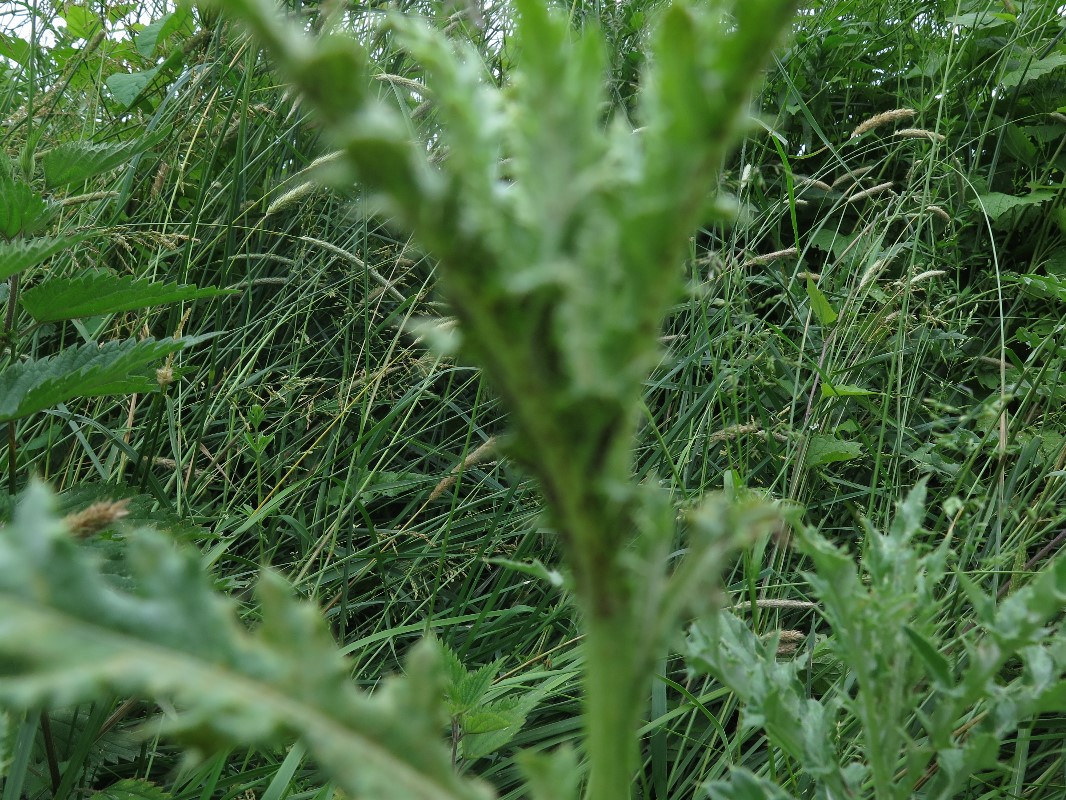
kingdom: Fungi
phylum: Basidiomycota
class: Pucciniomycetes
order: Pucciniales
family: Pucciniaceae
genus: Puccinia
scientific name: Puccinia suaveolens
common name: tidsel-tvecellerust
